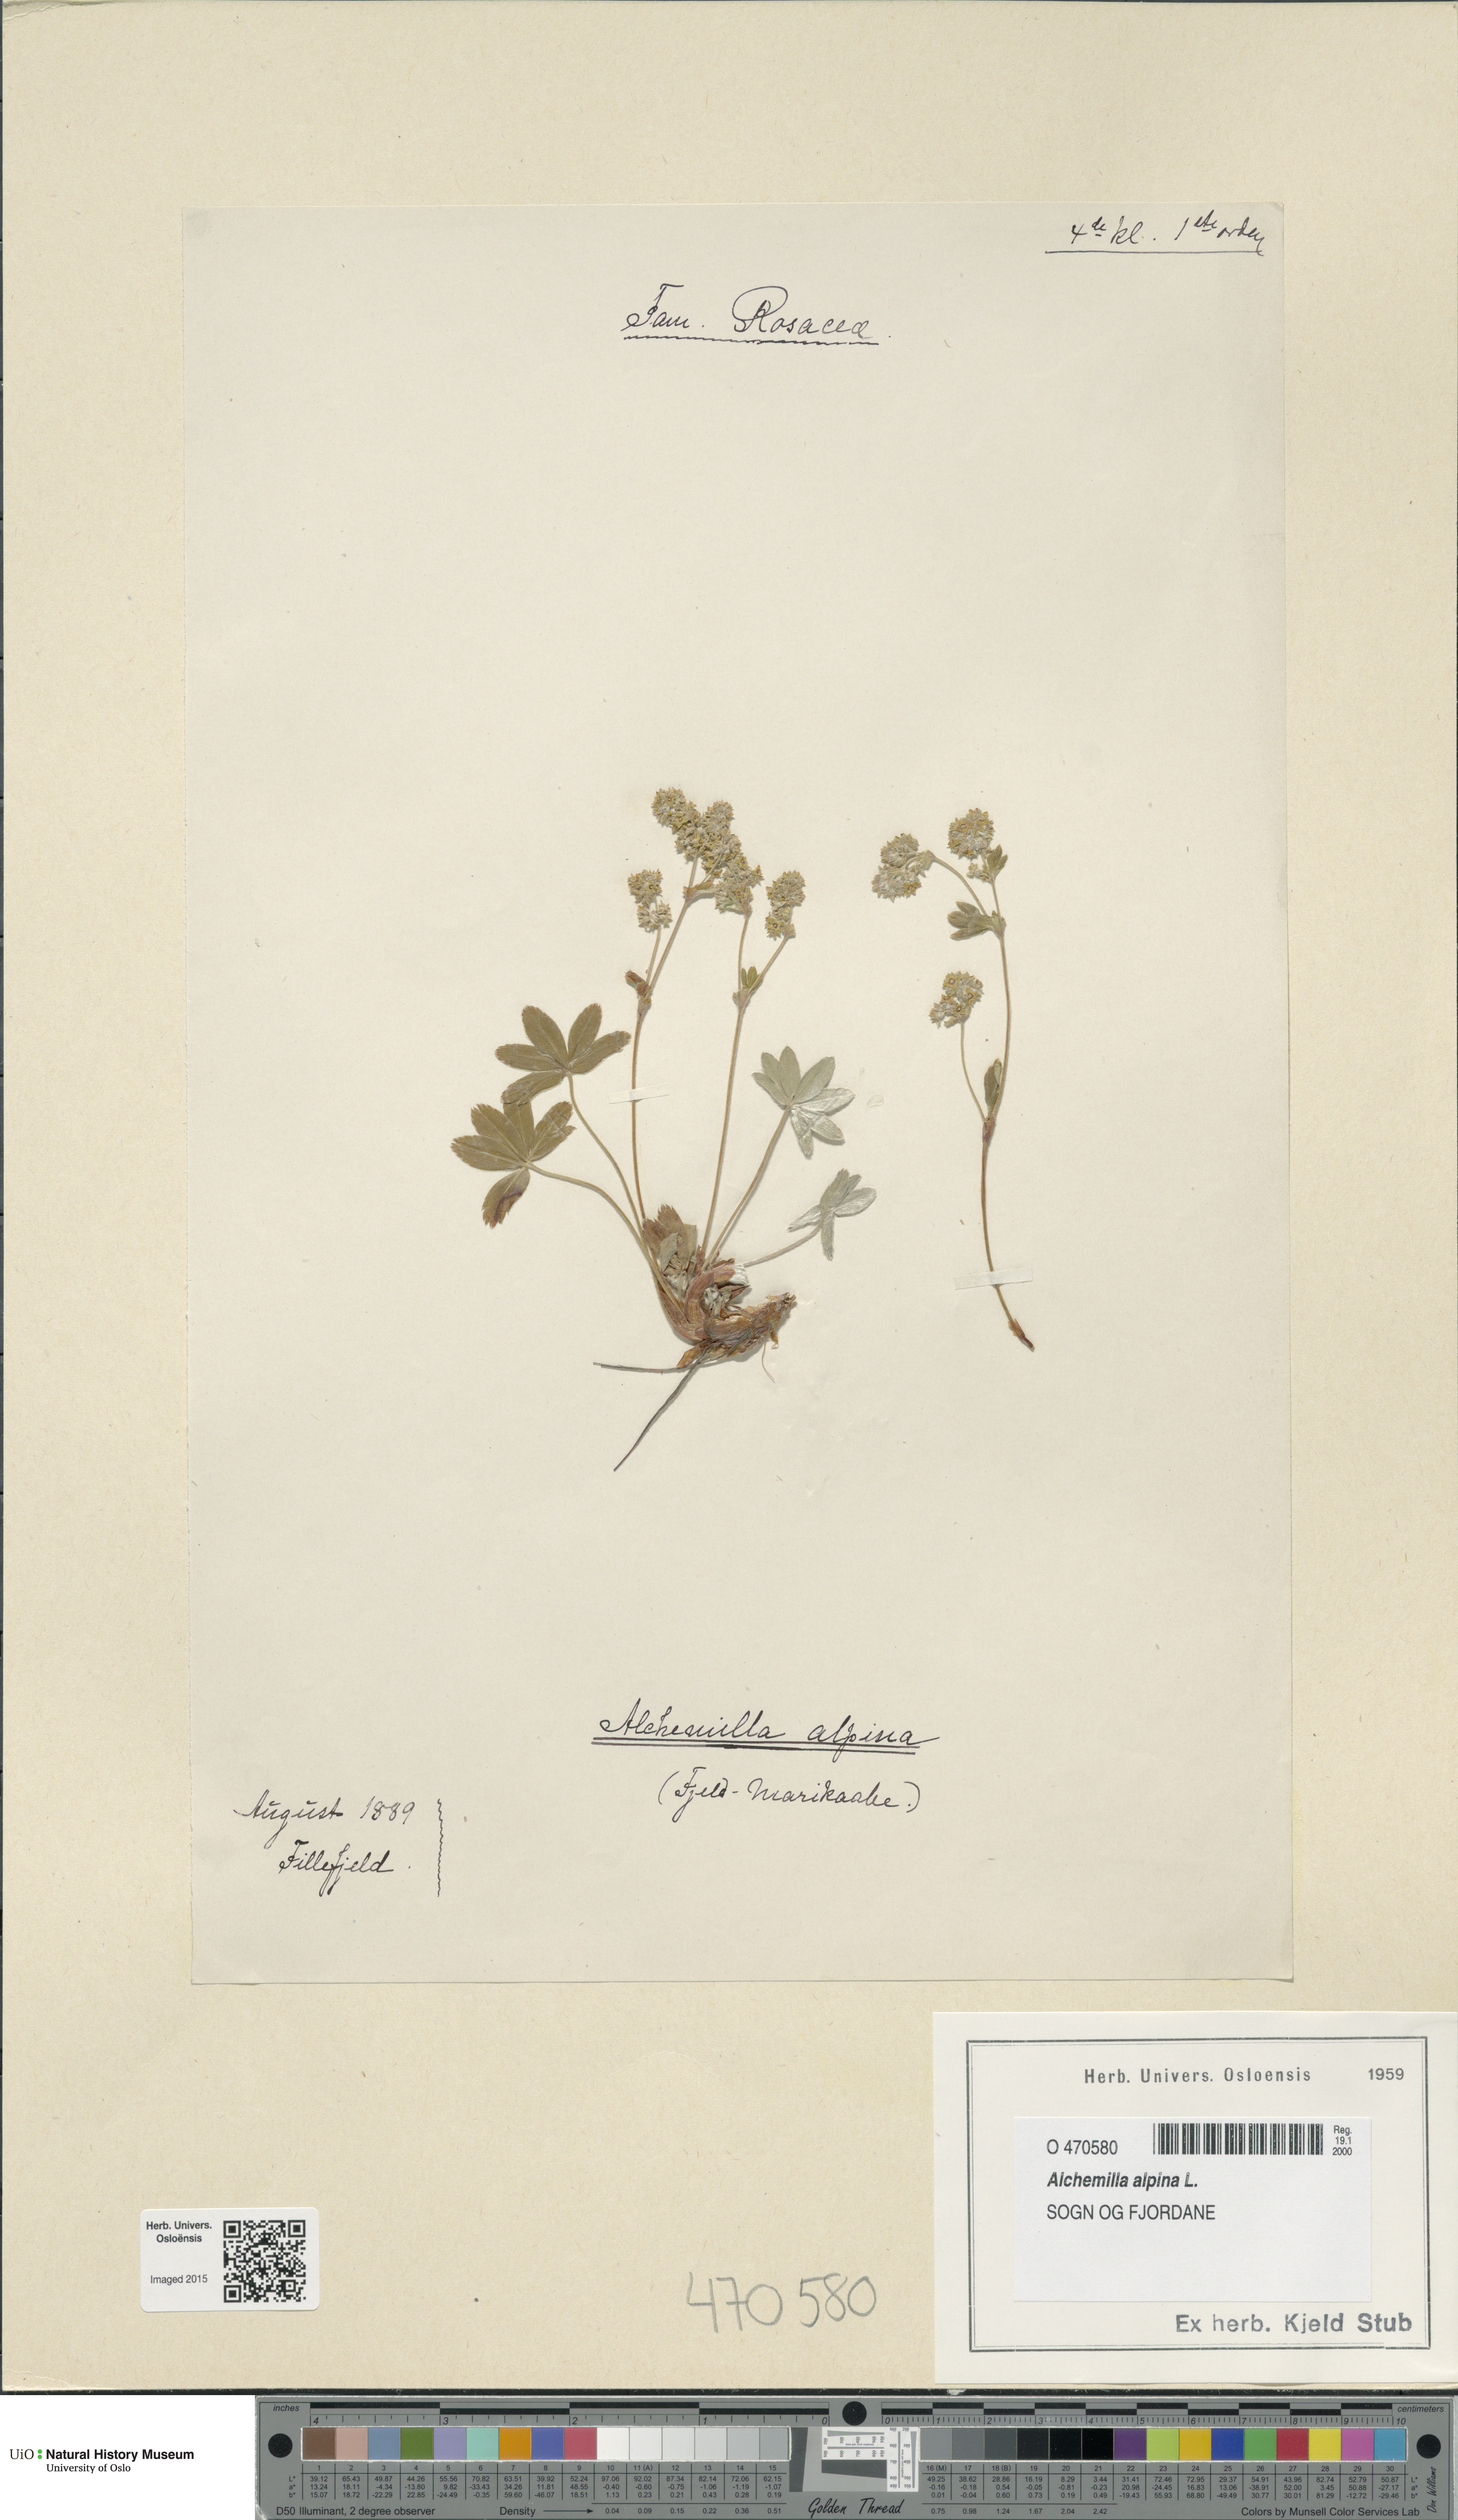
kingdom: Plantae
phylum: Tracheophyta
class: Magnoliopsida
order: Rosales
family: Rosaceae
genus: Alchemilla
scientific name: Alchemilla alpina
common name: Alpine lady's-mantle
